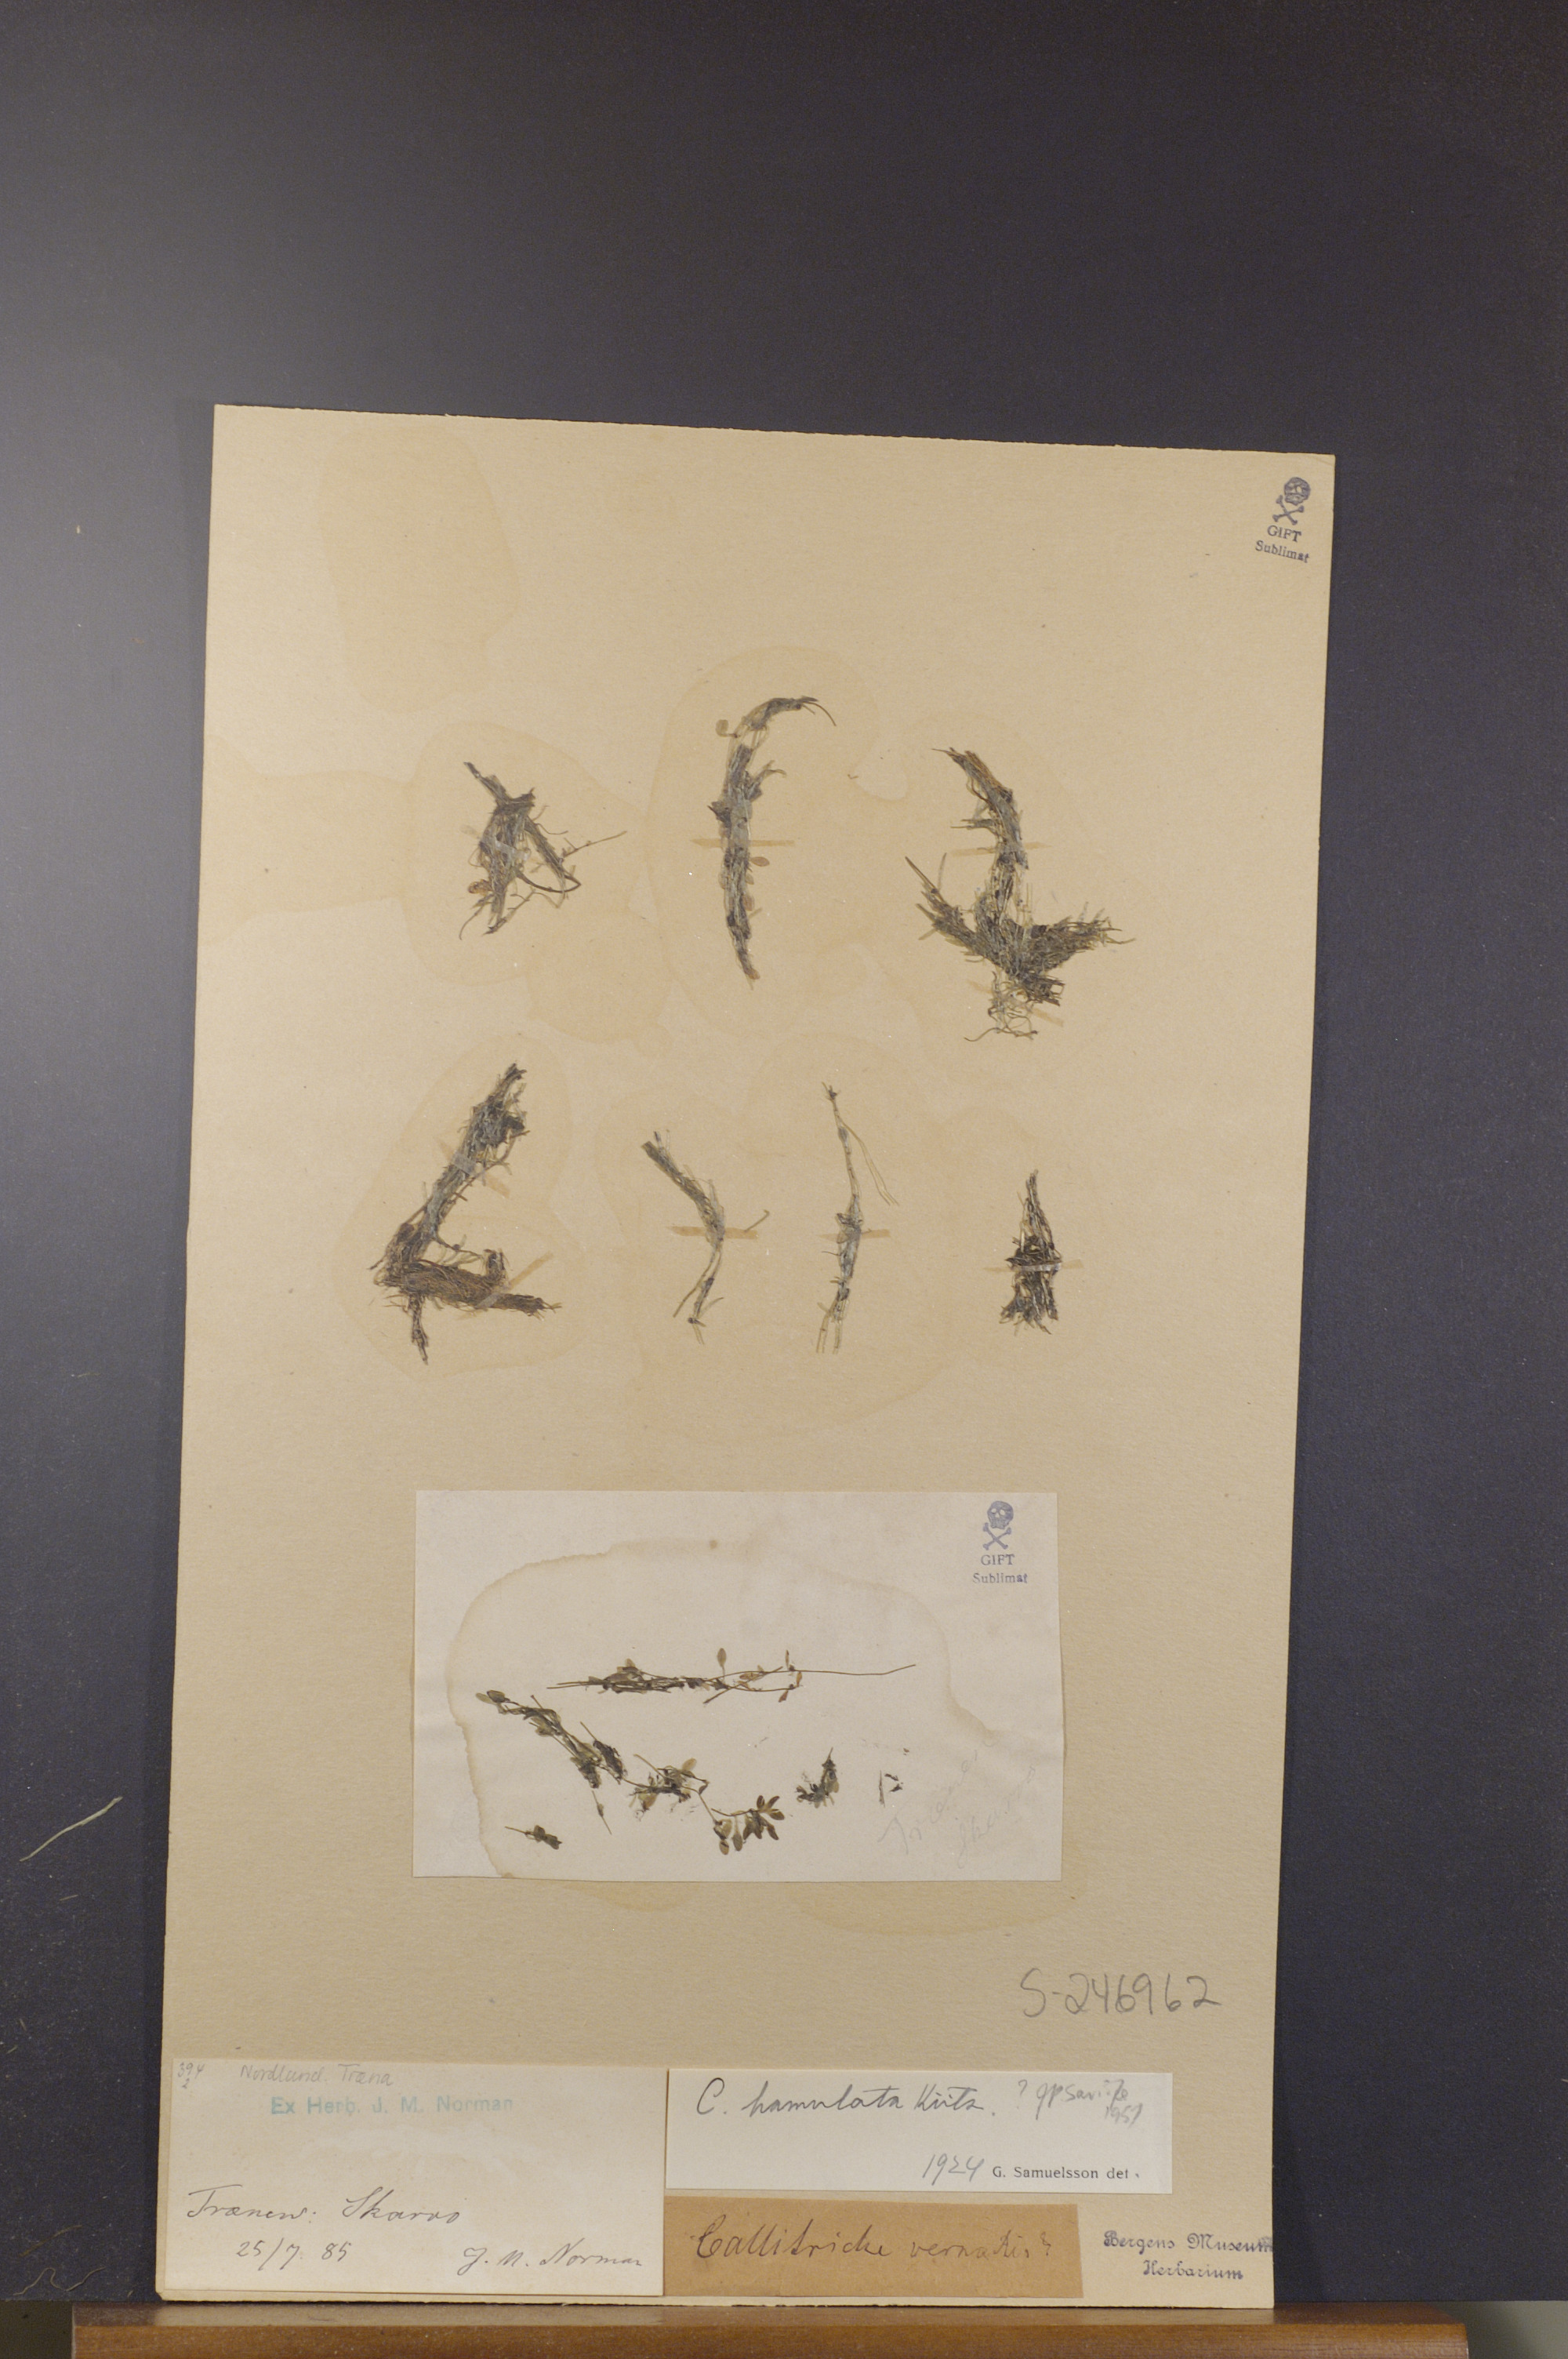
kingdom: Plantae
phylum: Tracheophyta
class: Magnoliopsida
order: Lamiales
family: Plantaginaceae
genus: Callitriche
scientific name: Callitriche hamulata
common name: Intermediate water-starwort
